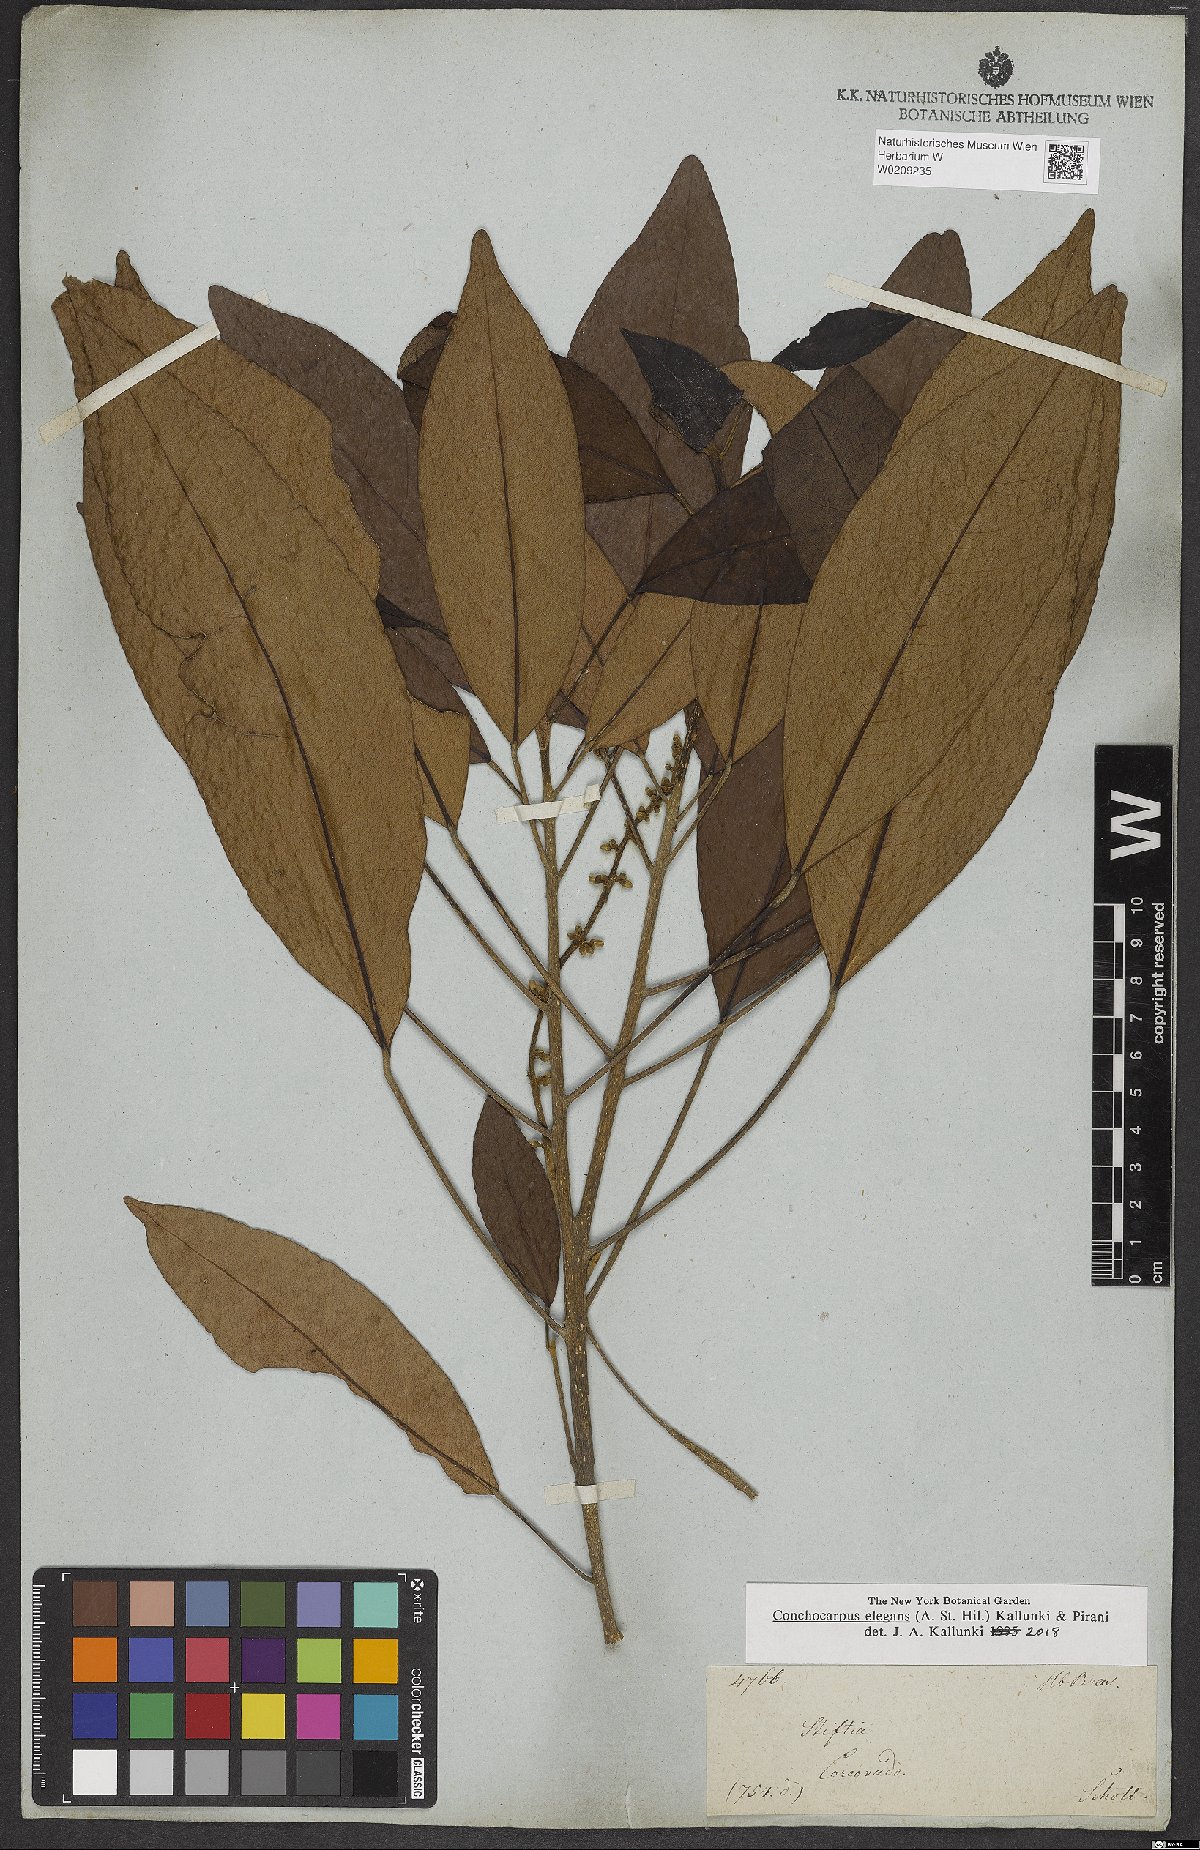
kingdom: Plantae
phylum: Tracheophyta
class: Magnoliopsida
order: Sapindales
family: Rutaceae
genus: Conchocarpus
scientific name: Conchocarpus elegans
